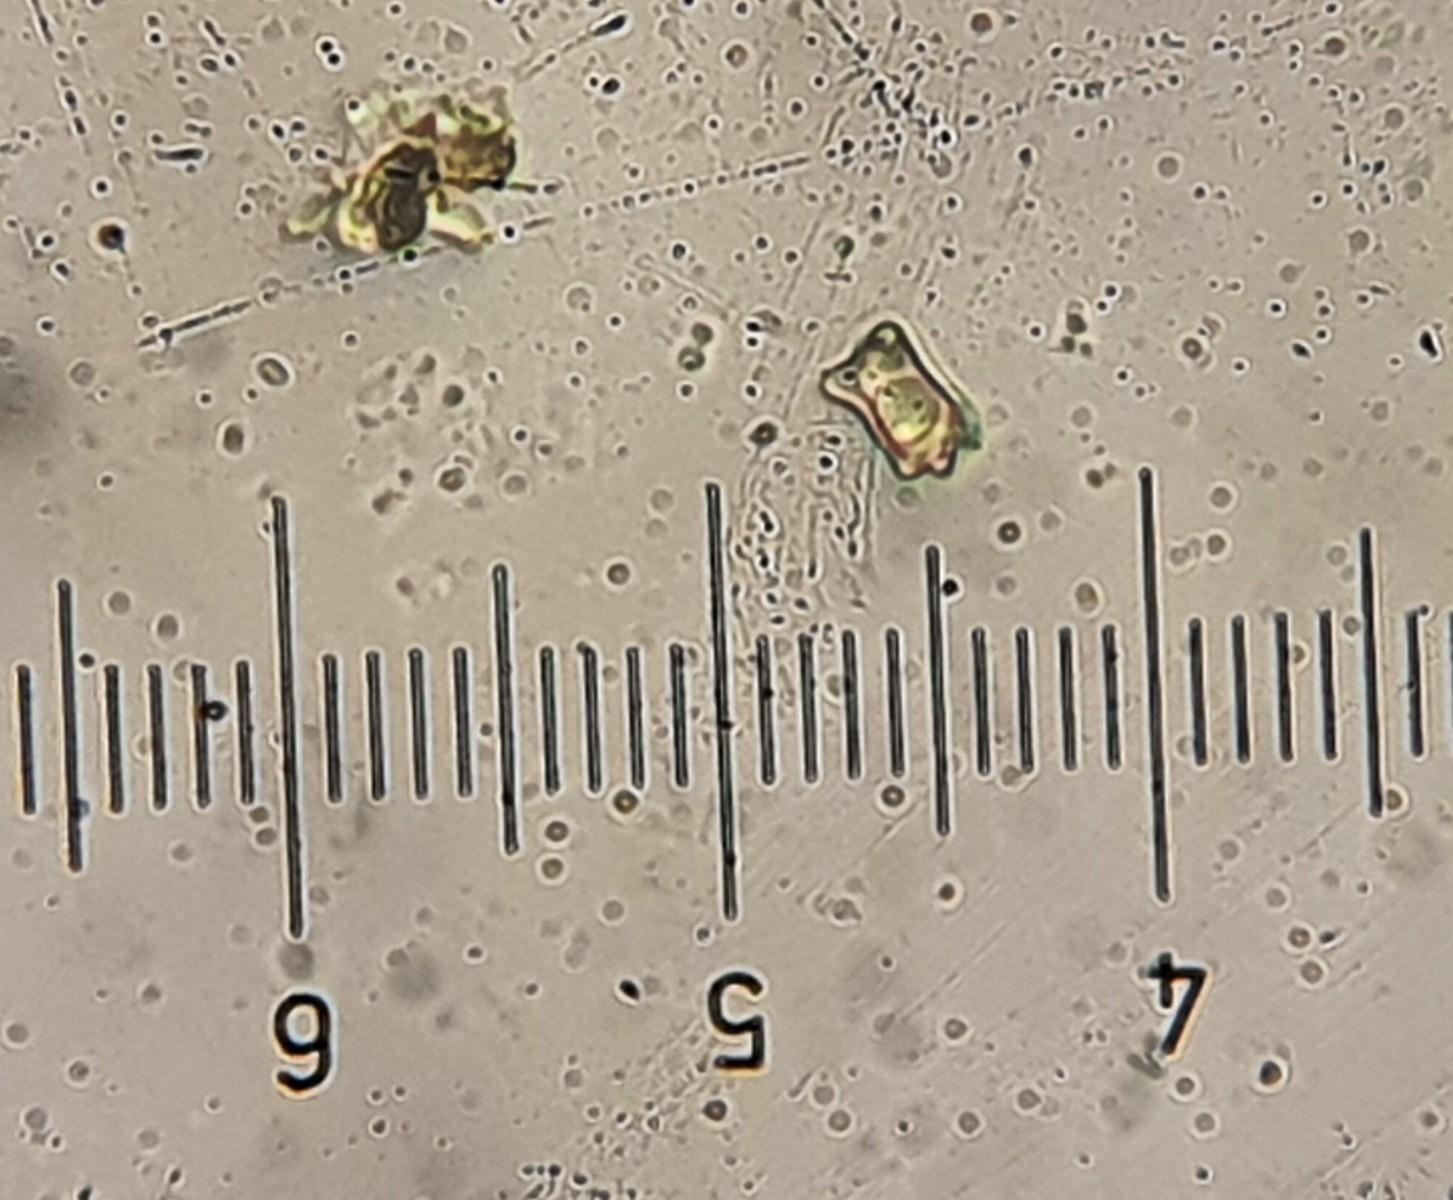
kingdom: Fungi
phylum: Basidiomycota
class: Agaricomycetes
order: Agaricales
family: Inocybaceae
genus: Inocybe
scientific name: Inocybe subcarpta
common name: plantage-trævlhat
